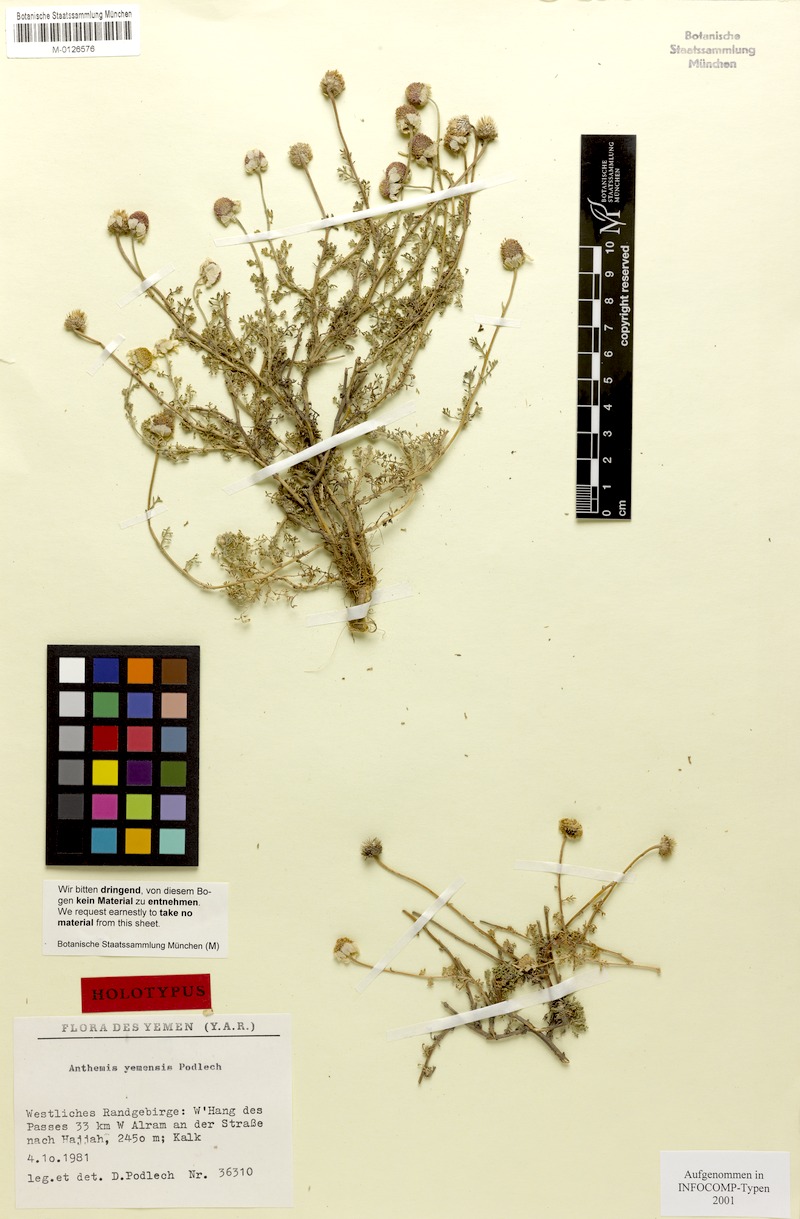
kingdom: Plantae
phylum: Tracheophyta
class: Magnoliopsida
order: Asterales
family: Asteraceae
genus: Anthemis
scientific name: Anthemis yemensis
